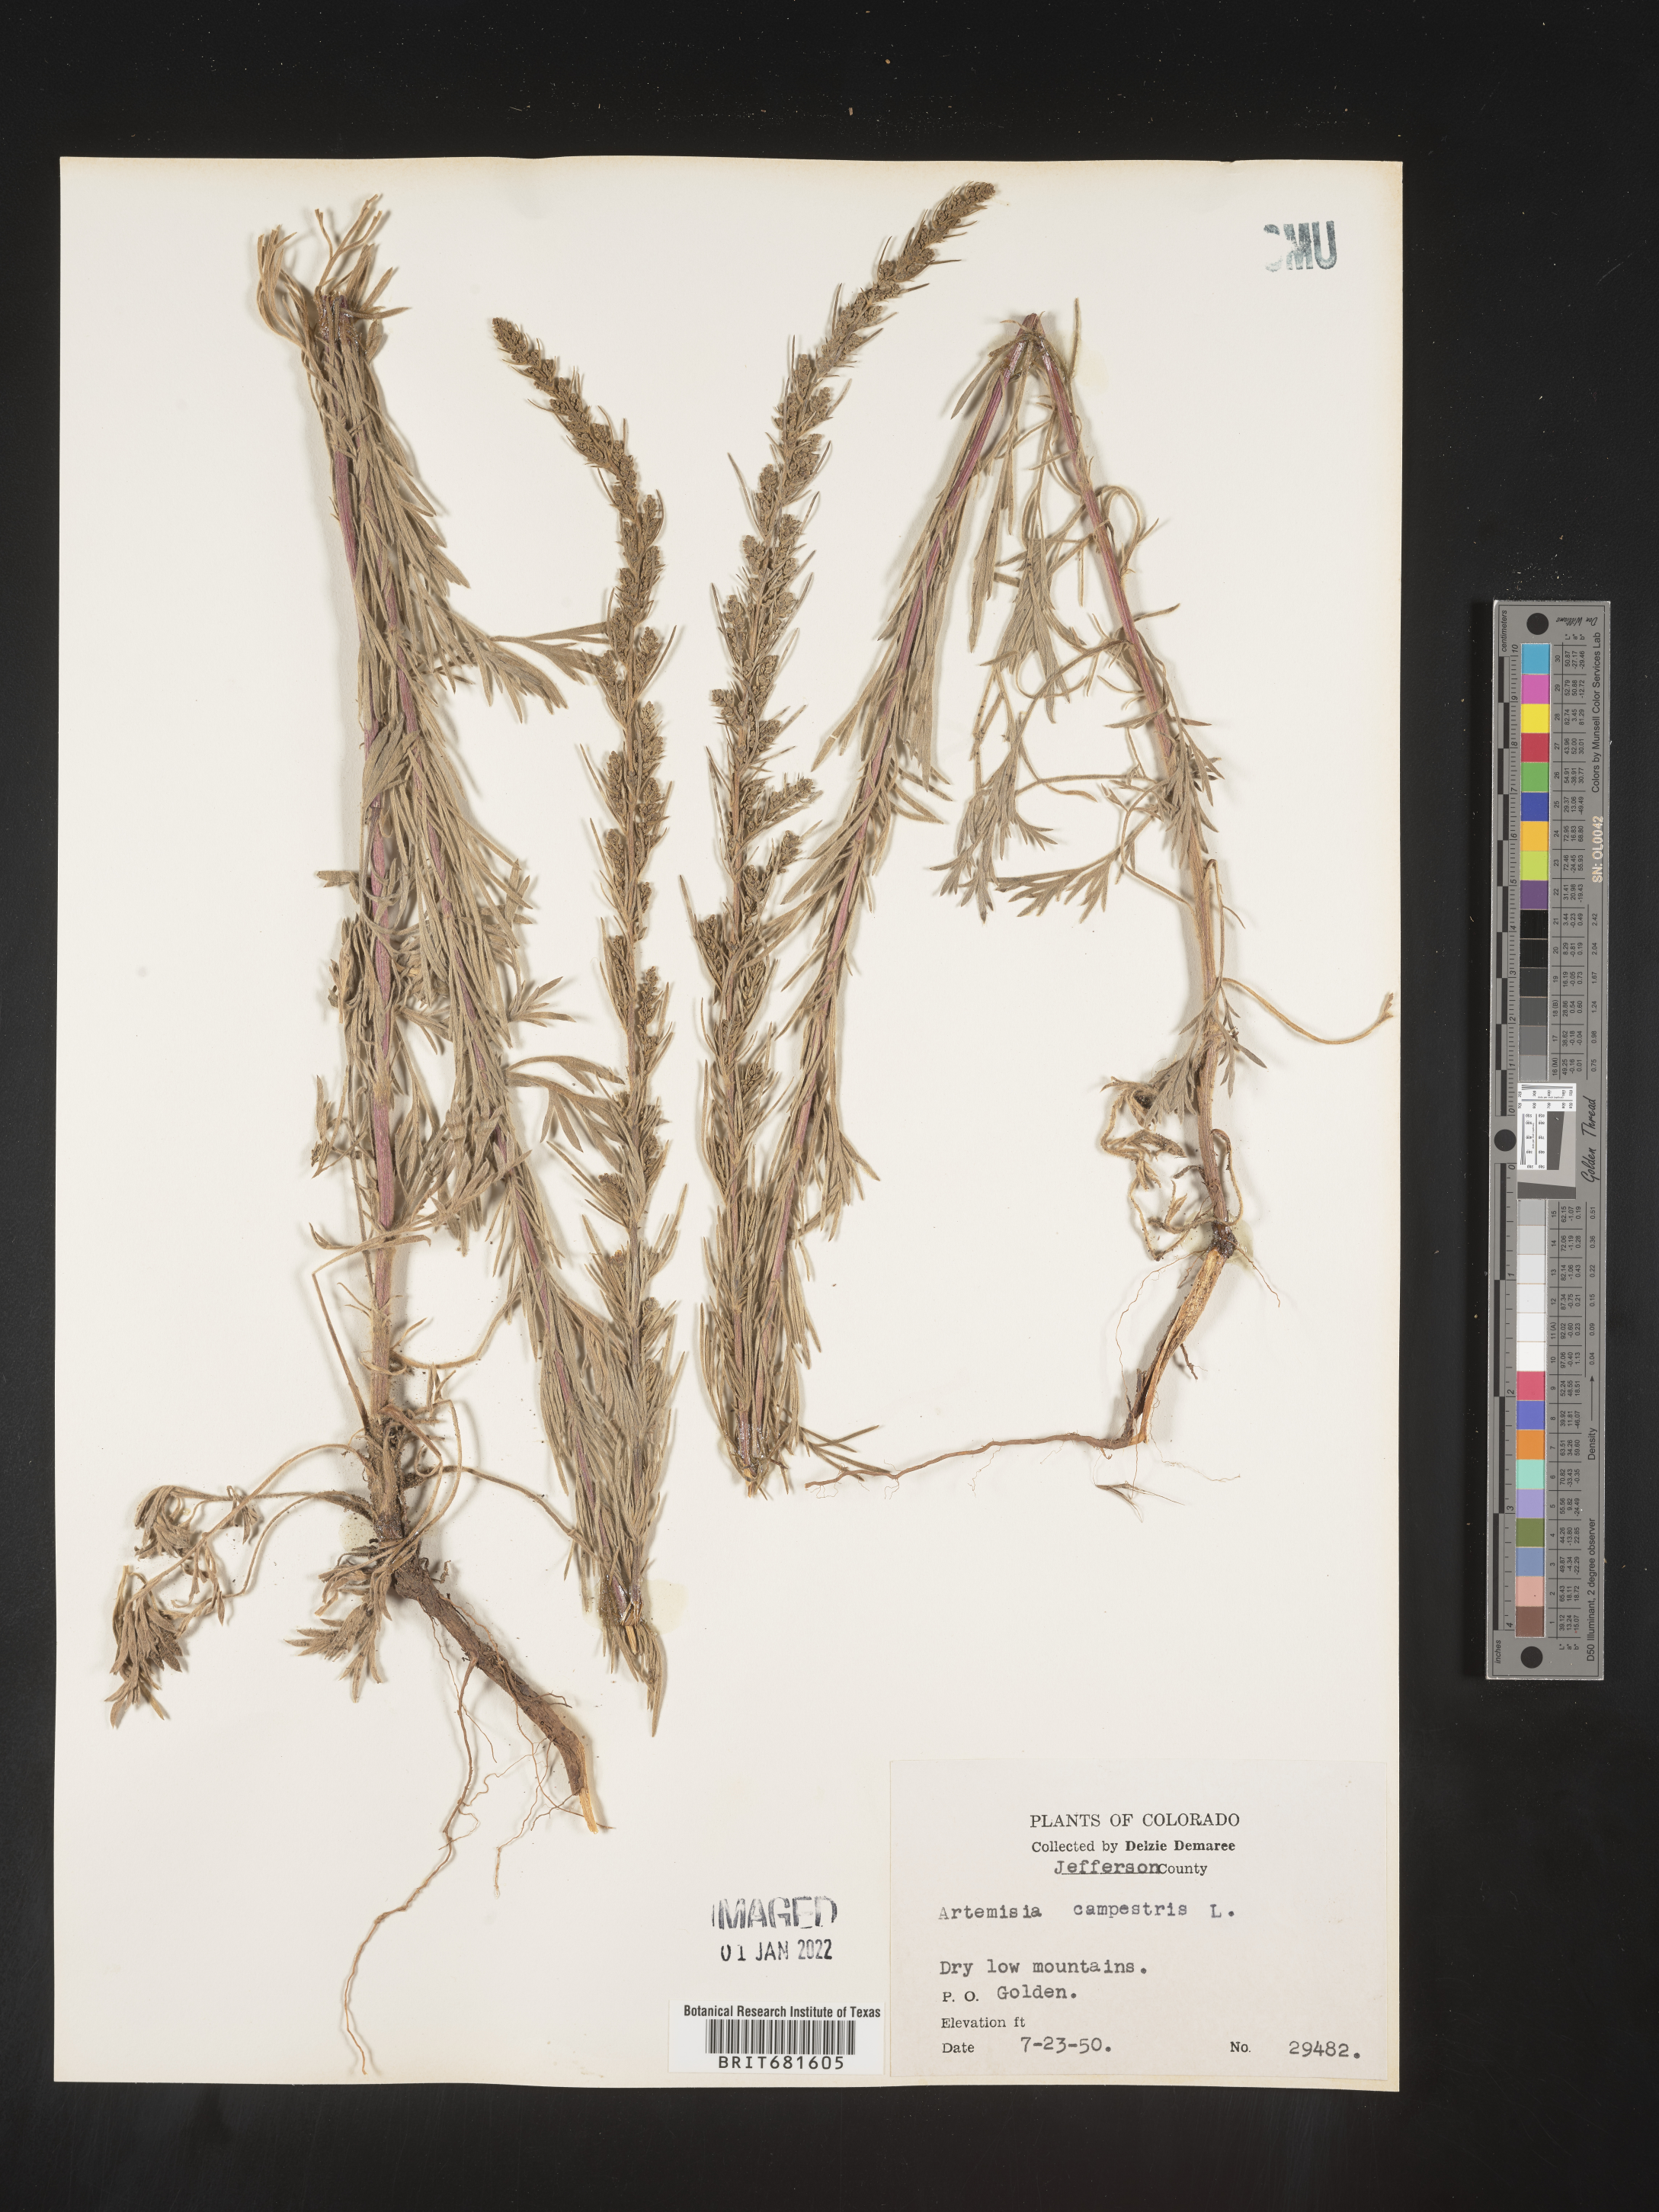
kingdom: Plantae
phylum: Tracheophyta
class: Magnoliopsida
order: Asterales
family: Asteraceae
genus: Artemisia
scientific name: Artemisia campestris
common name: Field wormwood
